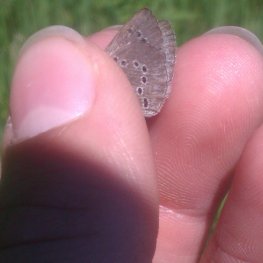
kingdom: Animalia
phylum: Arthropoda
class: Insecta
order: Lepidoptera
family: Lycaenidae
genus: Glaucopsyche
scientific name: Glaucopsyche lygdamus
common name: Silvery Blue
